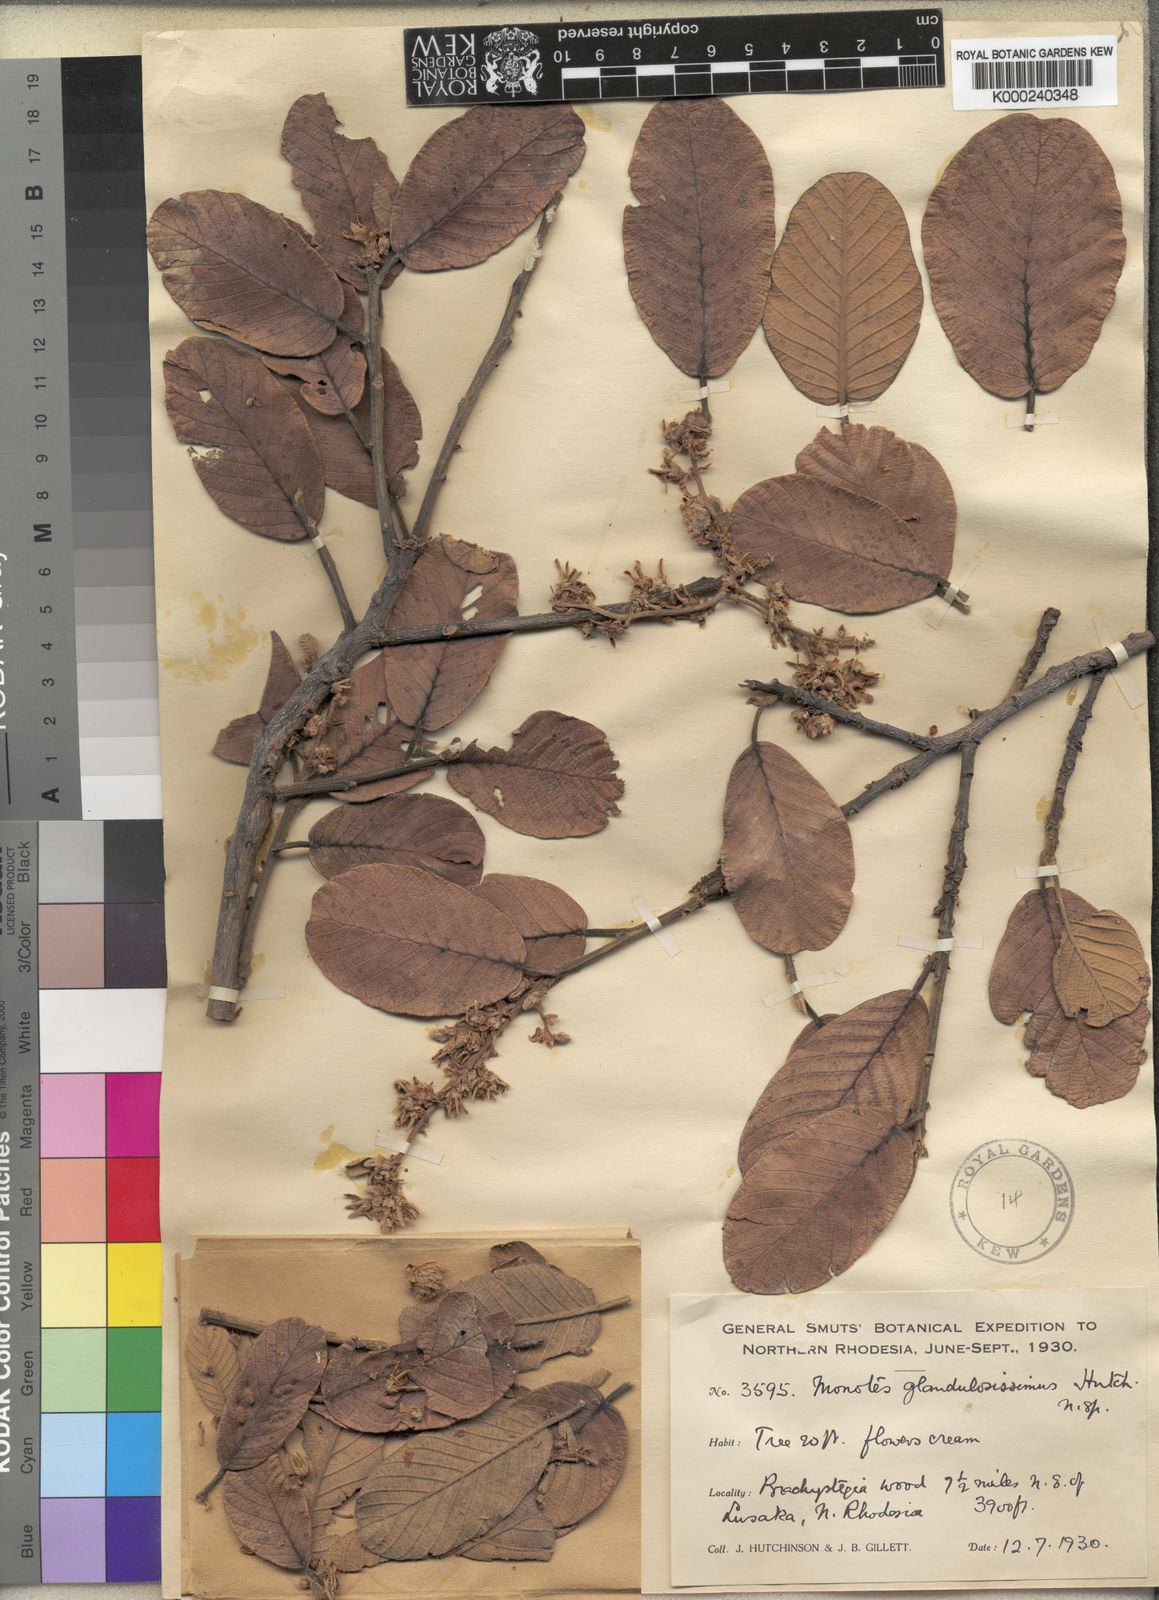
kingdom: Plantae
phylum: Tracheophyta
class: Magnoliopsida
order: Malvales
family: Dipterocarpaceae
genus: Monotes
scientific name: Monotes katangensis
